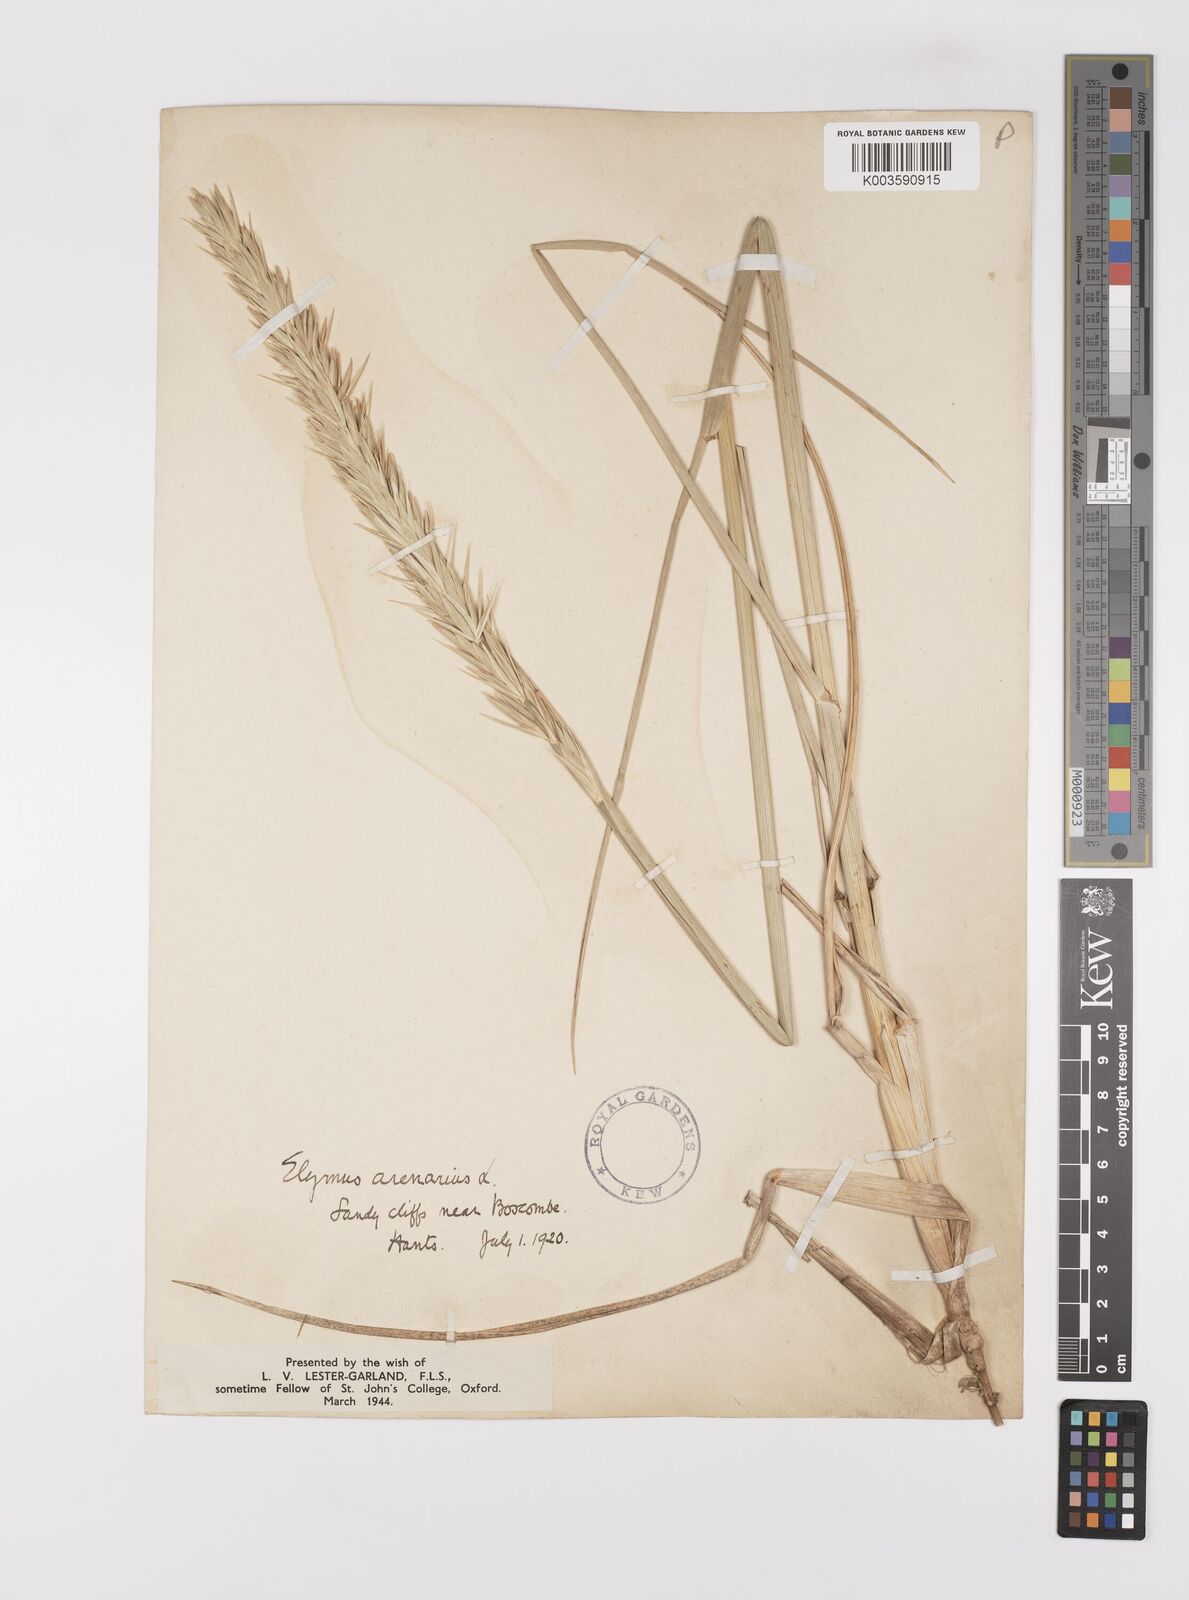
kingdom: Plantae
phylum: Tracheophyta
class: Liliopsida
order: Poales
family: Poaceae
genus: Leymus
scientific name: Leymus arenarius
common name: Lyme-grass
